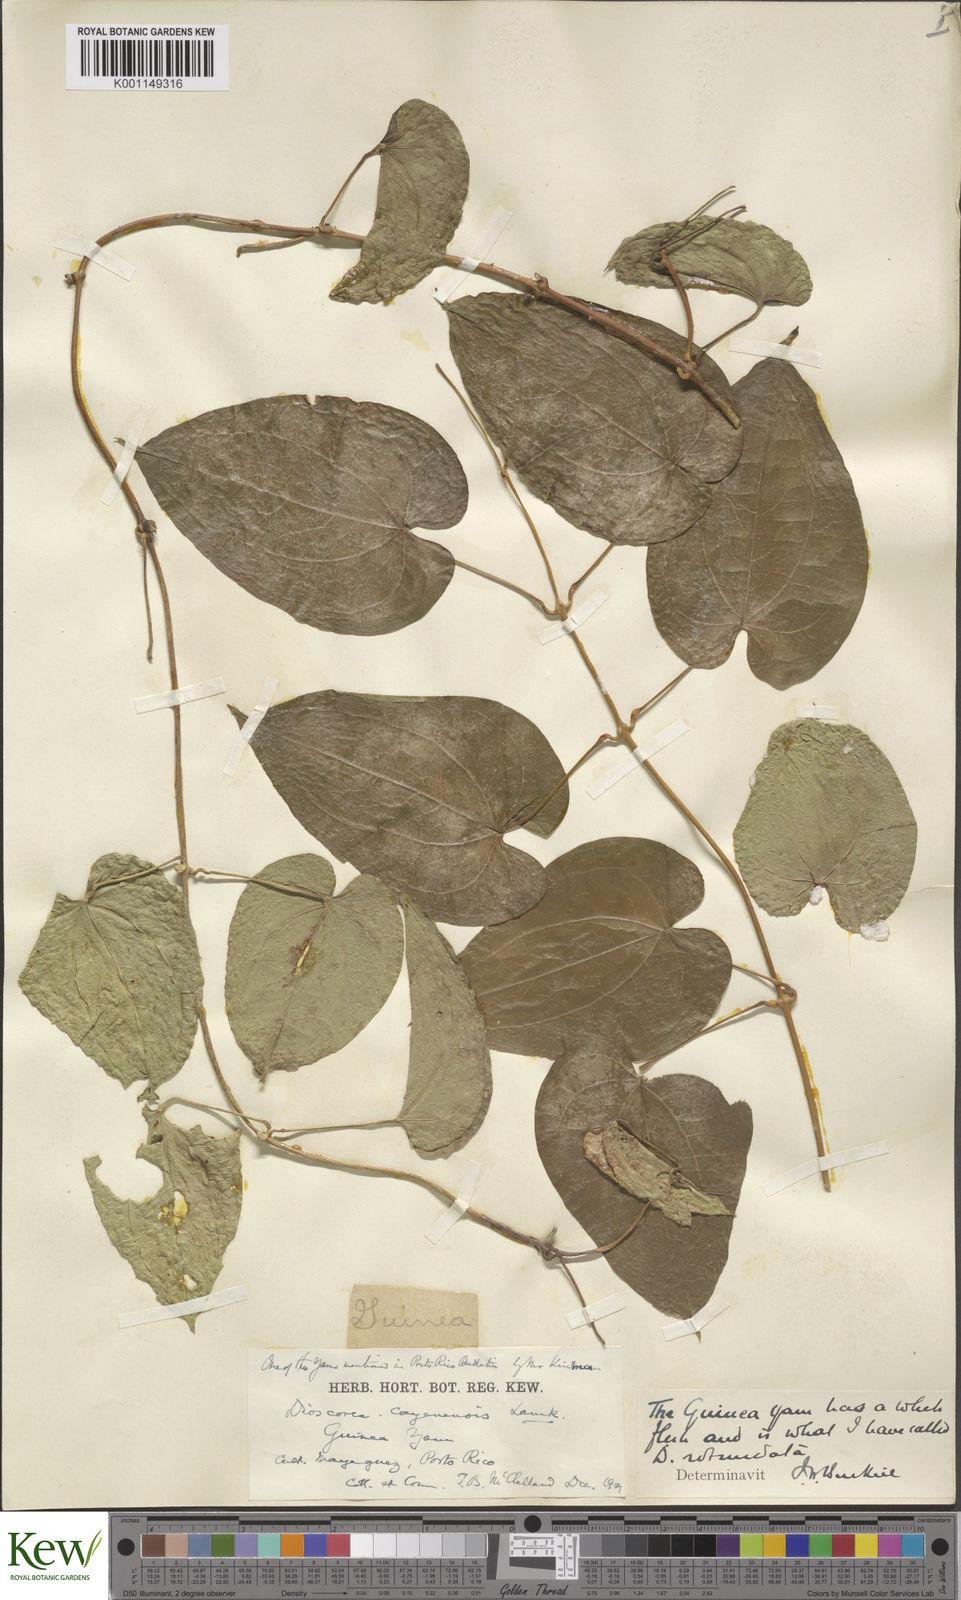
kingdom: Plantae
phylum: Tracheophyta
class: Liliopsida
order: Dioscoreales
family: Dioscoreaceae
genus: Dioscorea
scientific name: Dioscorea cayenensis
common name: Attoto yam
